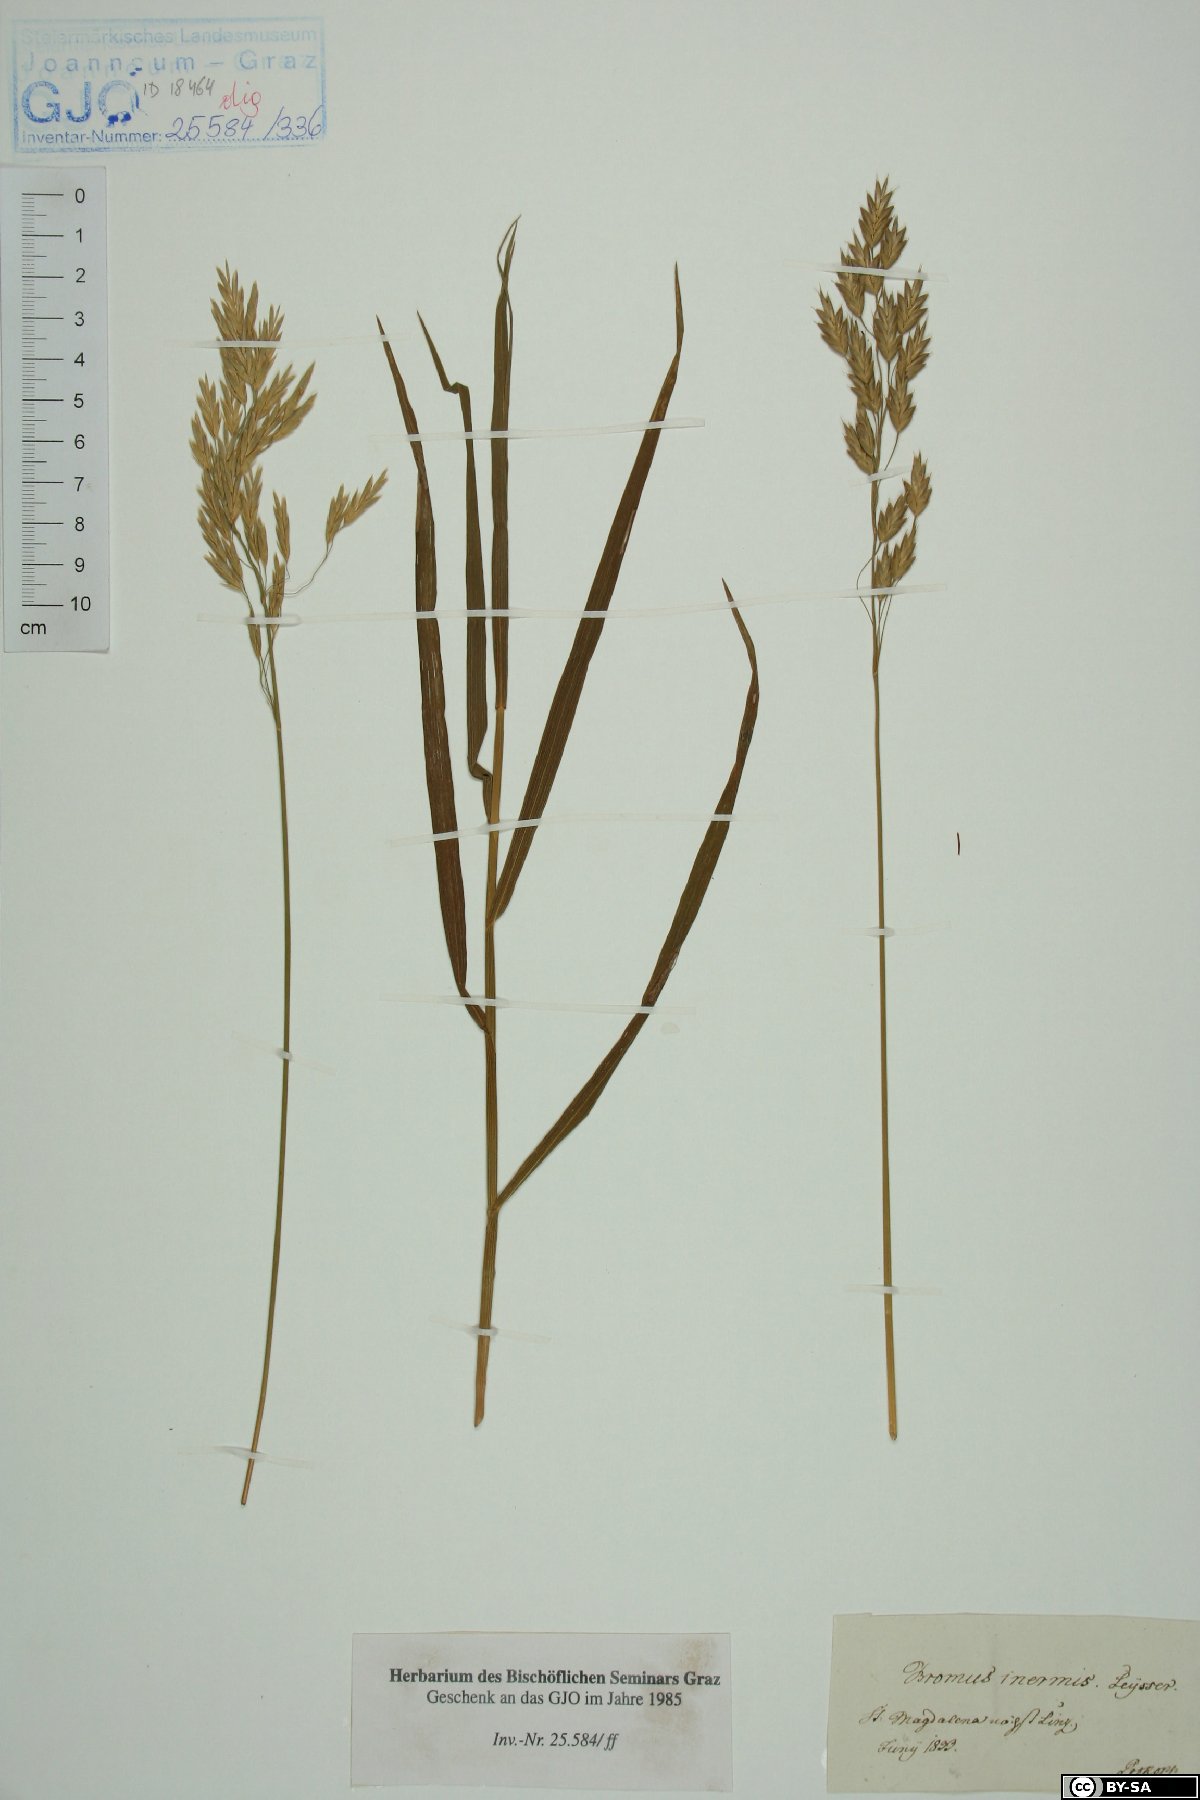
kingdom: Plantae
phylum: Tracheophyta
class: Liliopsida
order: Poales
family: Poaceae
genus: Bromus
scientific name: Bromus inermis
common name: Smooth brome
